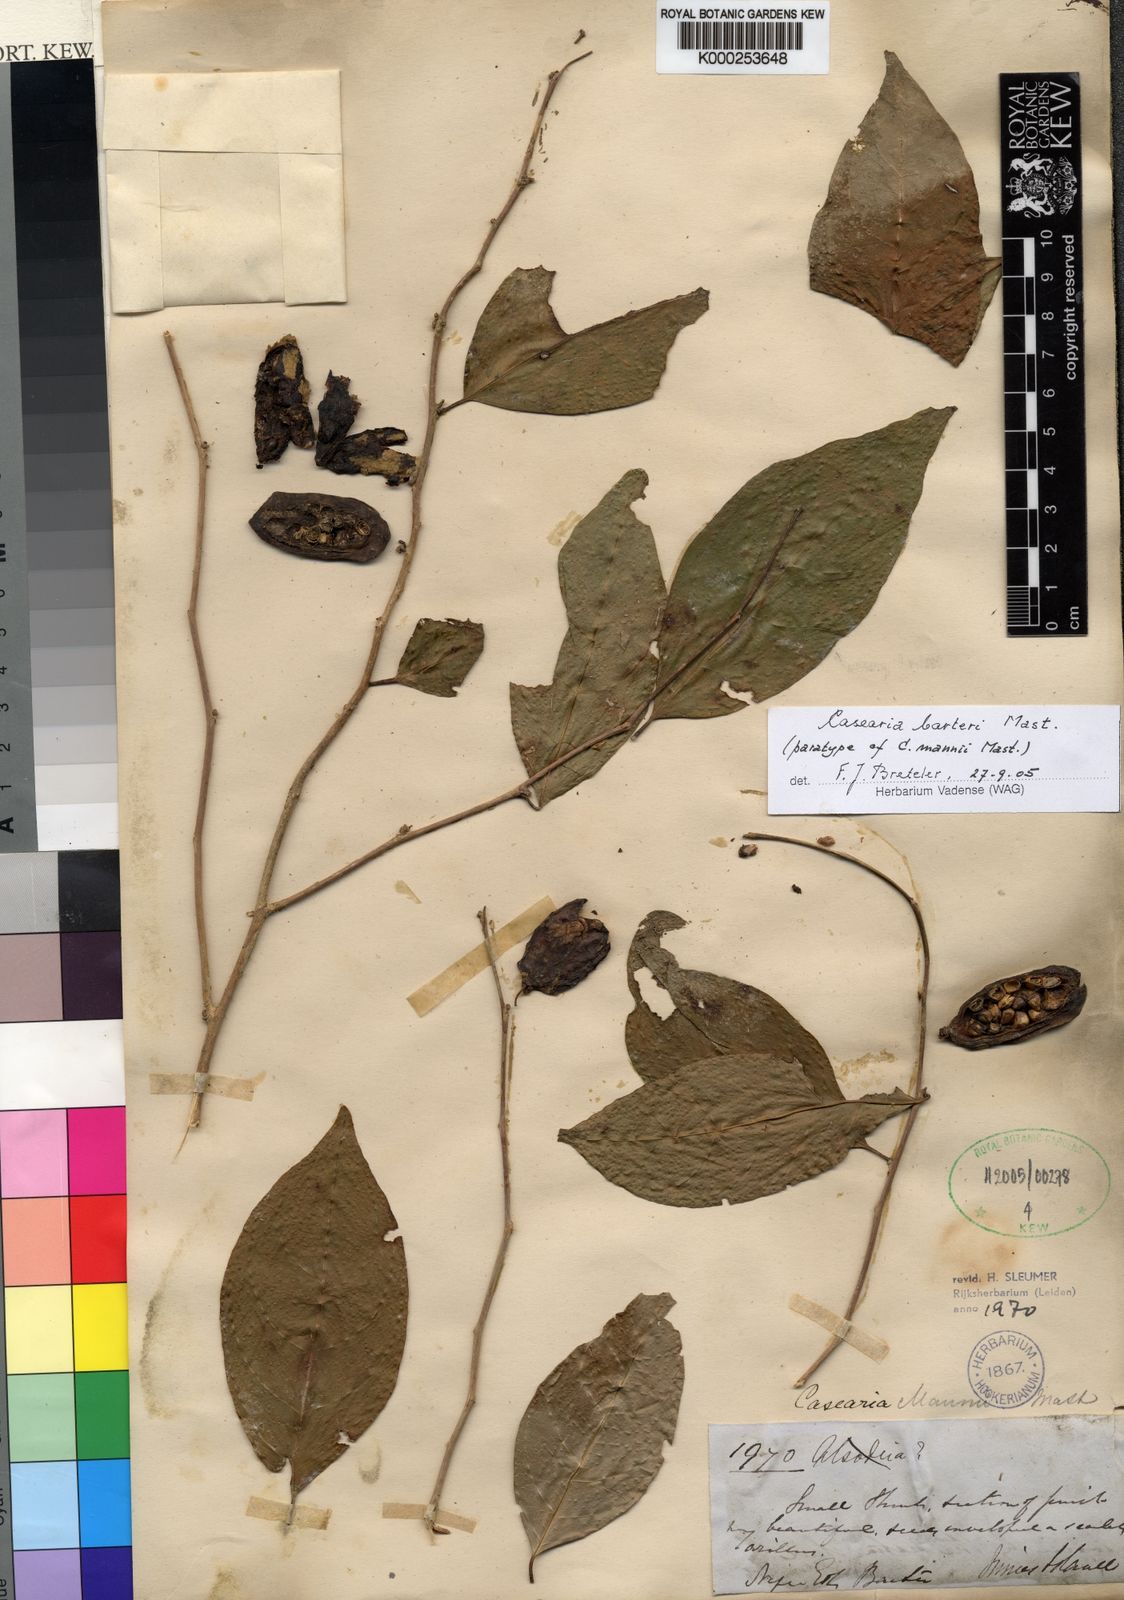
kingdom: Plantae
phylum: Tracheophyta
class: Magnoliopsida
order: Malpighiales
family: Salicaceae
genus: Casearia
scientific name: Casearia barteri
